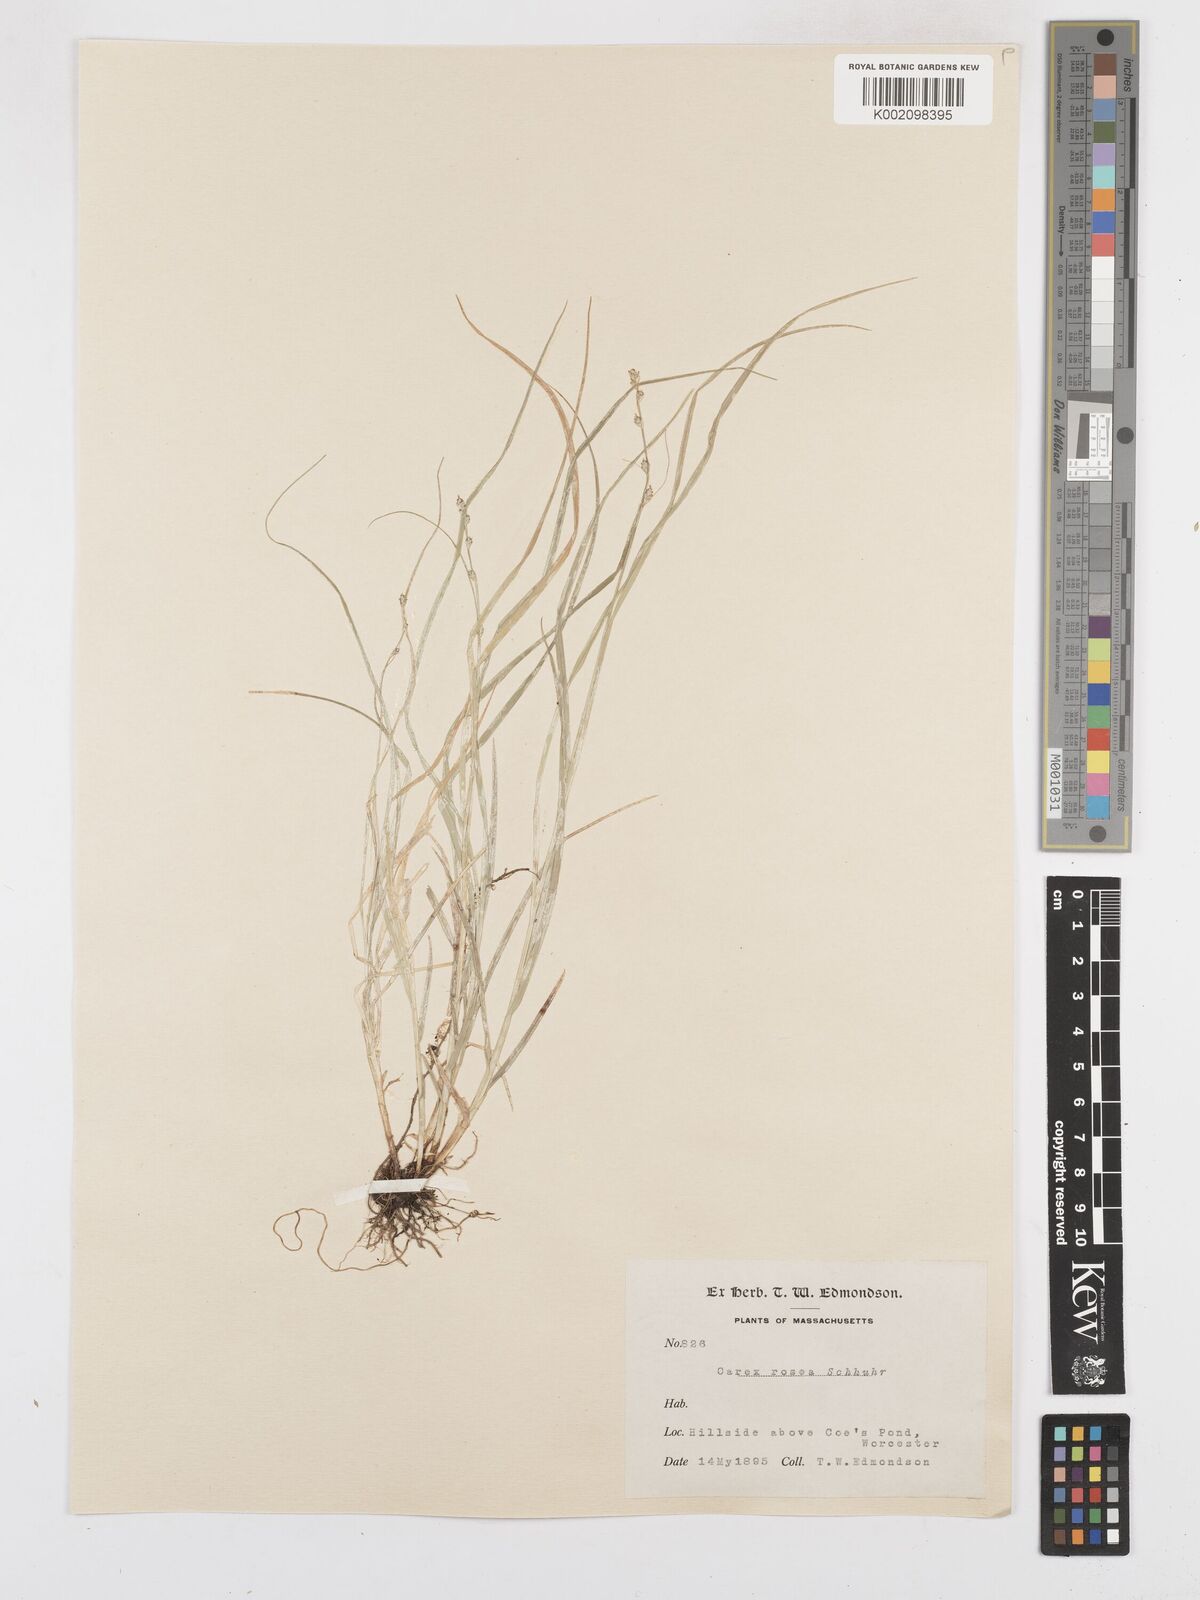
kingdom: Plantae
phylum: Tracheophyta
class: Liliopsida
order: Poales
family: Cyperaceae
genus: Carex
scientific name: Carex rosea
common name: Curly-styled wood sedge
